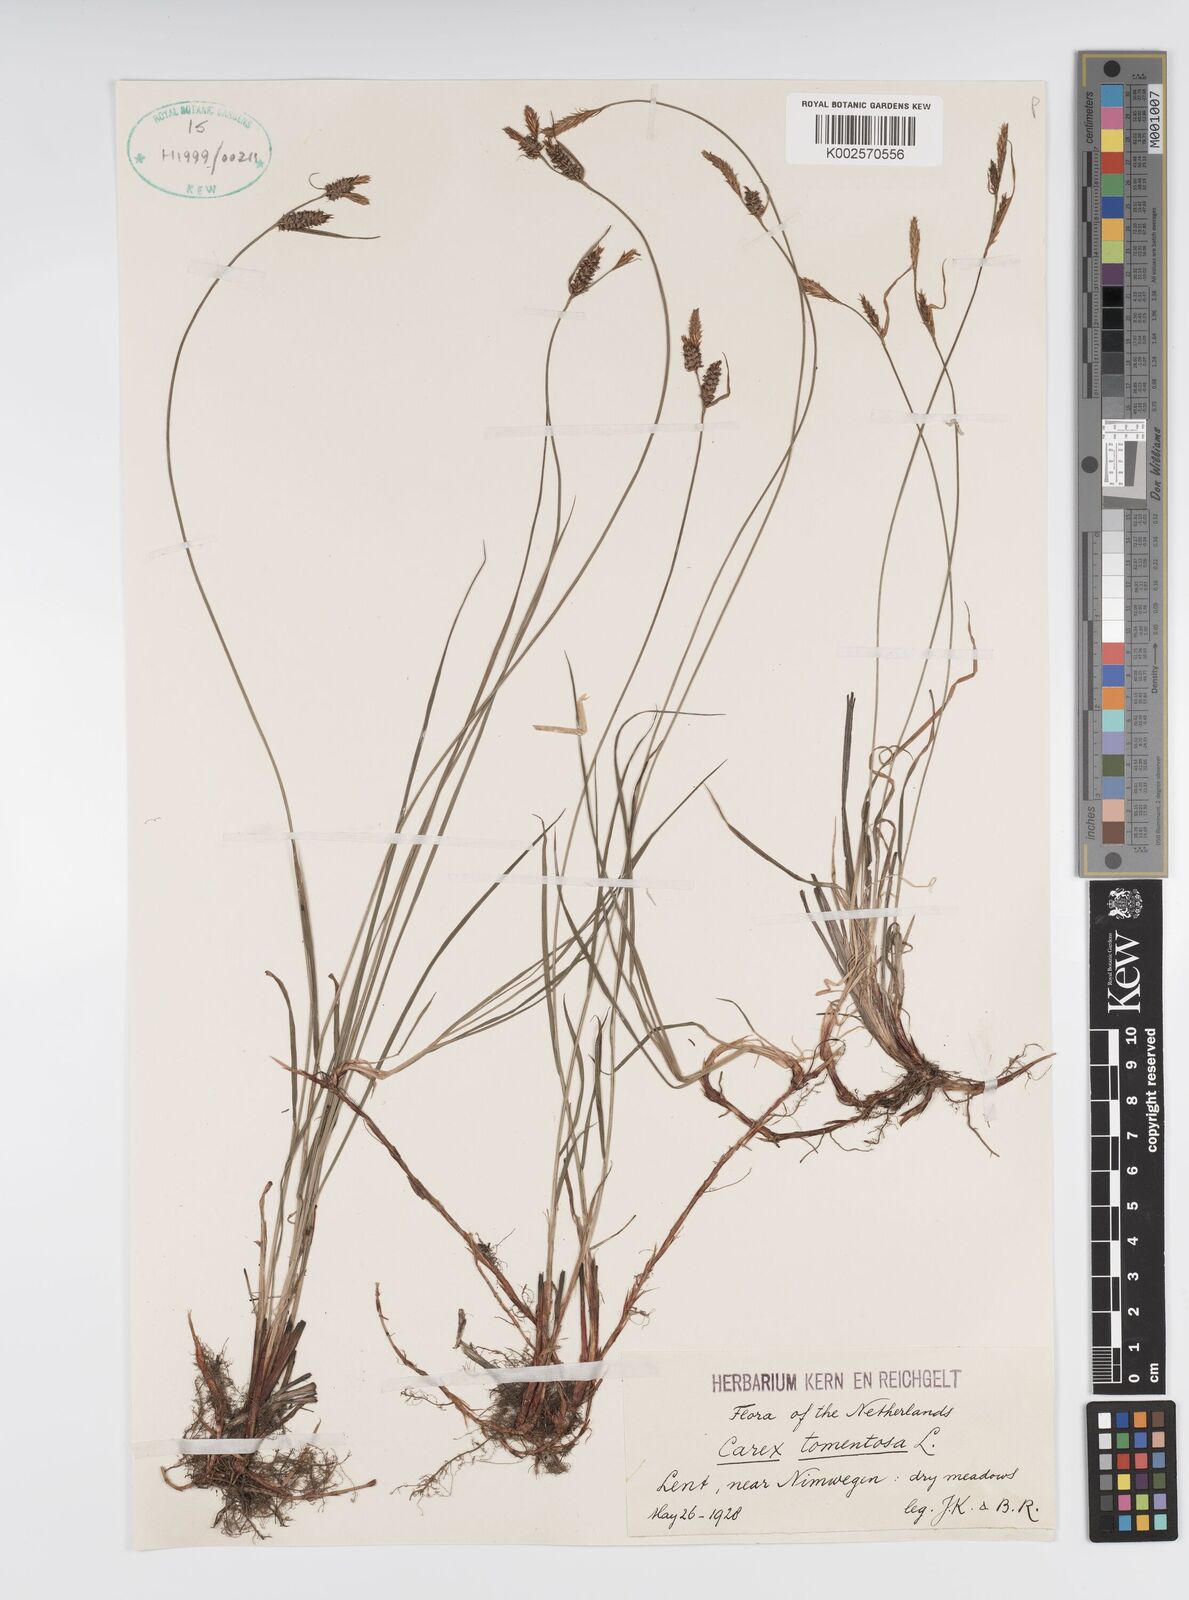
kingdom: Plantae
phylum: Tracheophyta
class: Liliopsida
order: Poales
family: Cyperaceae
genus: Carex
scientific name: Carex montana
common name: Soft-leaved sedge
